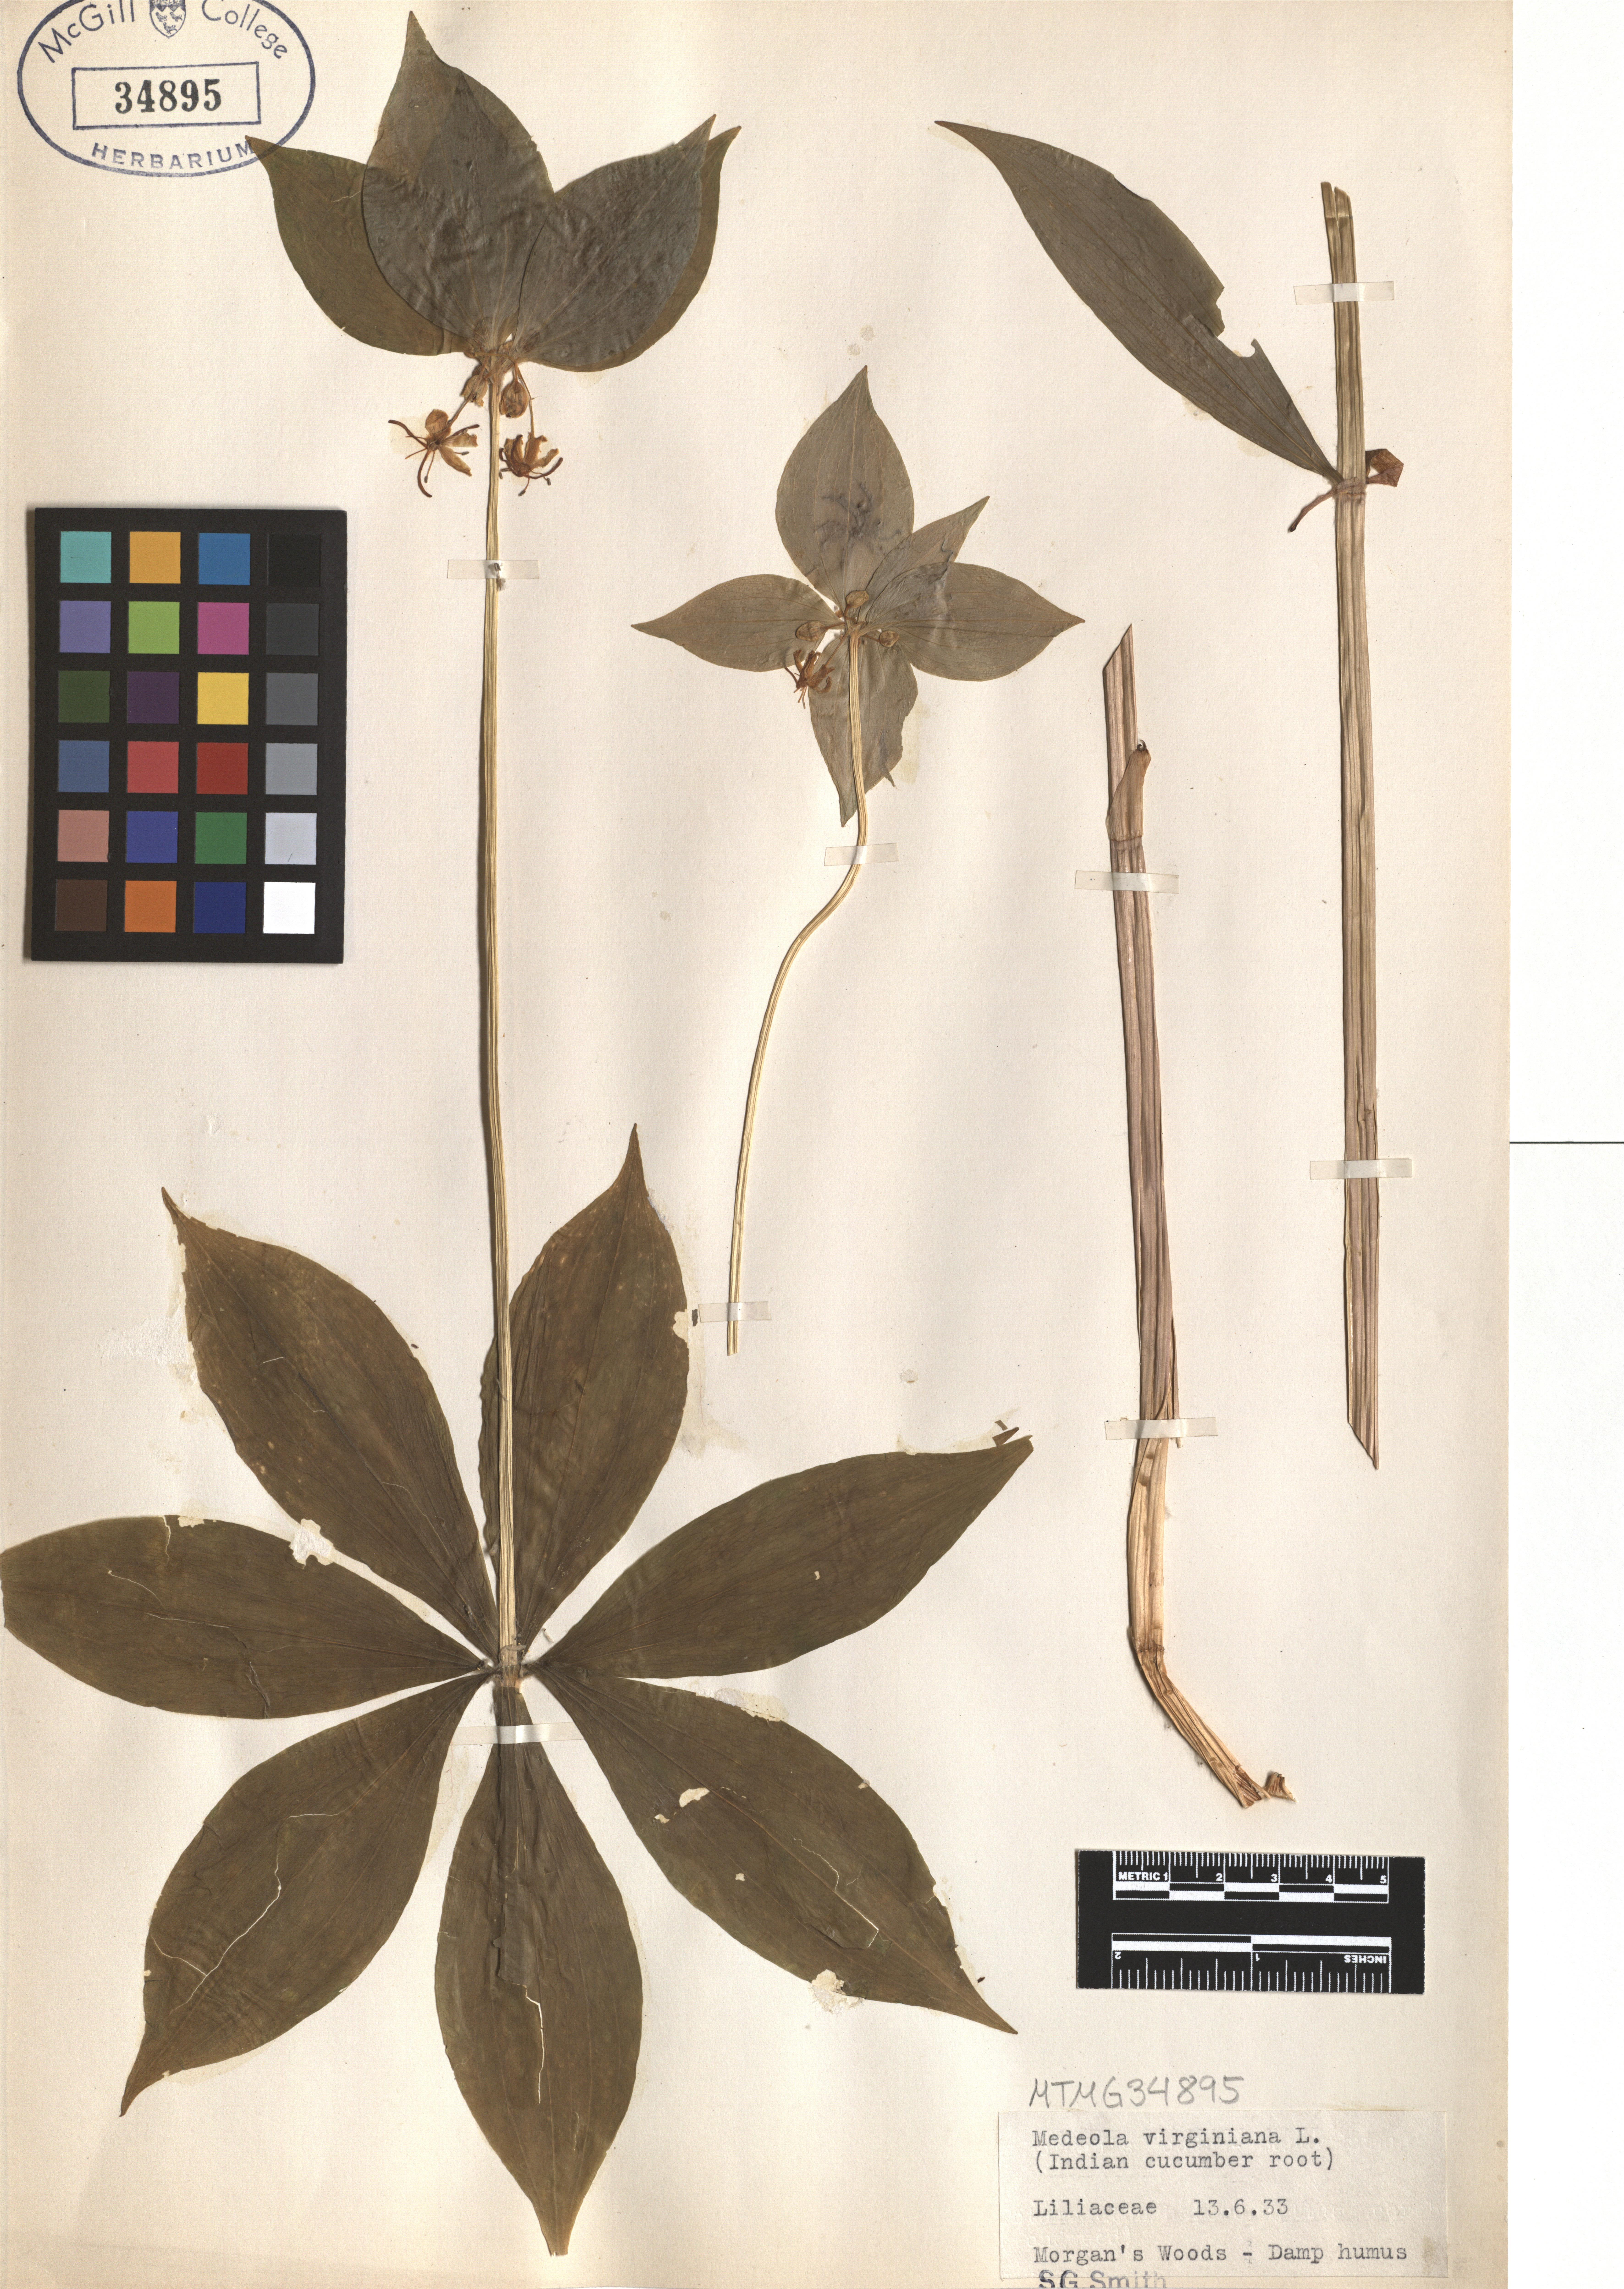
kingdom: Plantae
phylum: Tracheophyta
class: Liliopsida
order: Liliales
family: Liliaceae
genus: Medeola
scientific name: Medeola virginiana
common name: Indian cucumber-root
